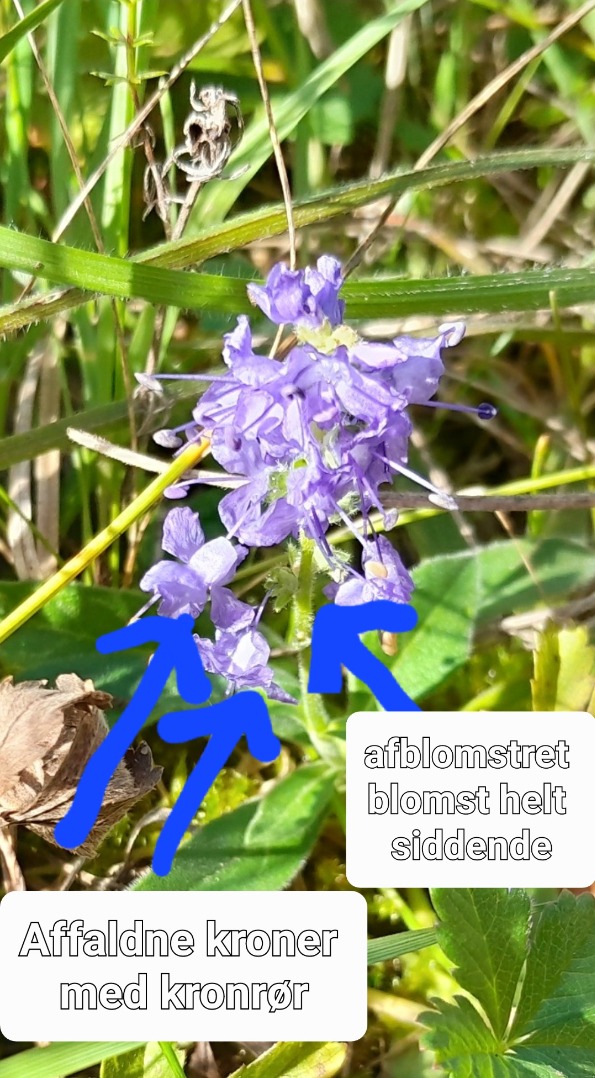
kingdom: Plantae
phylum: Tracheophyta
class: Magnoliopsida
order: Lamiales
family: Plantaginaceae
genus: Veronica
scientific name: Veronica spicata
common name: Aks-ærenpris
